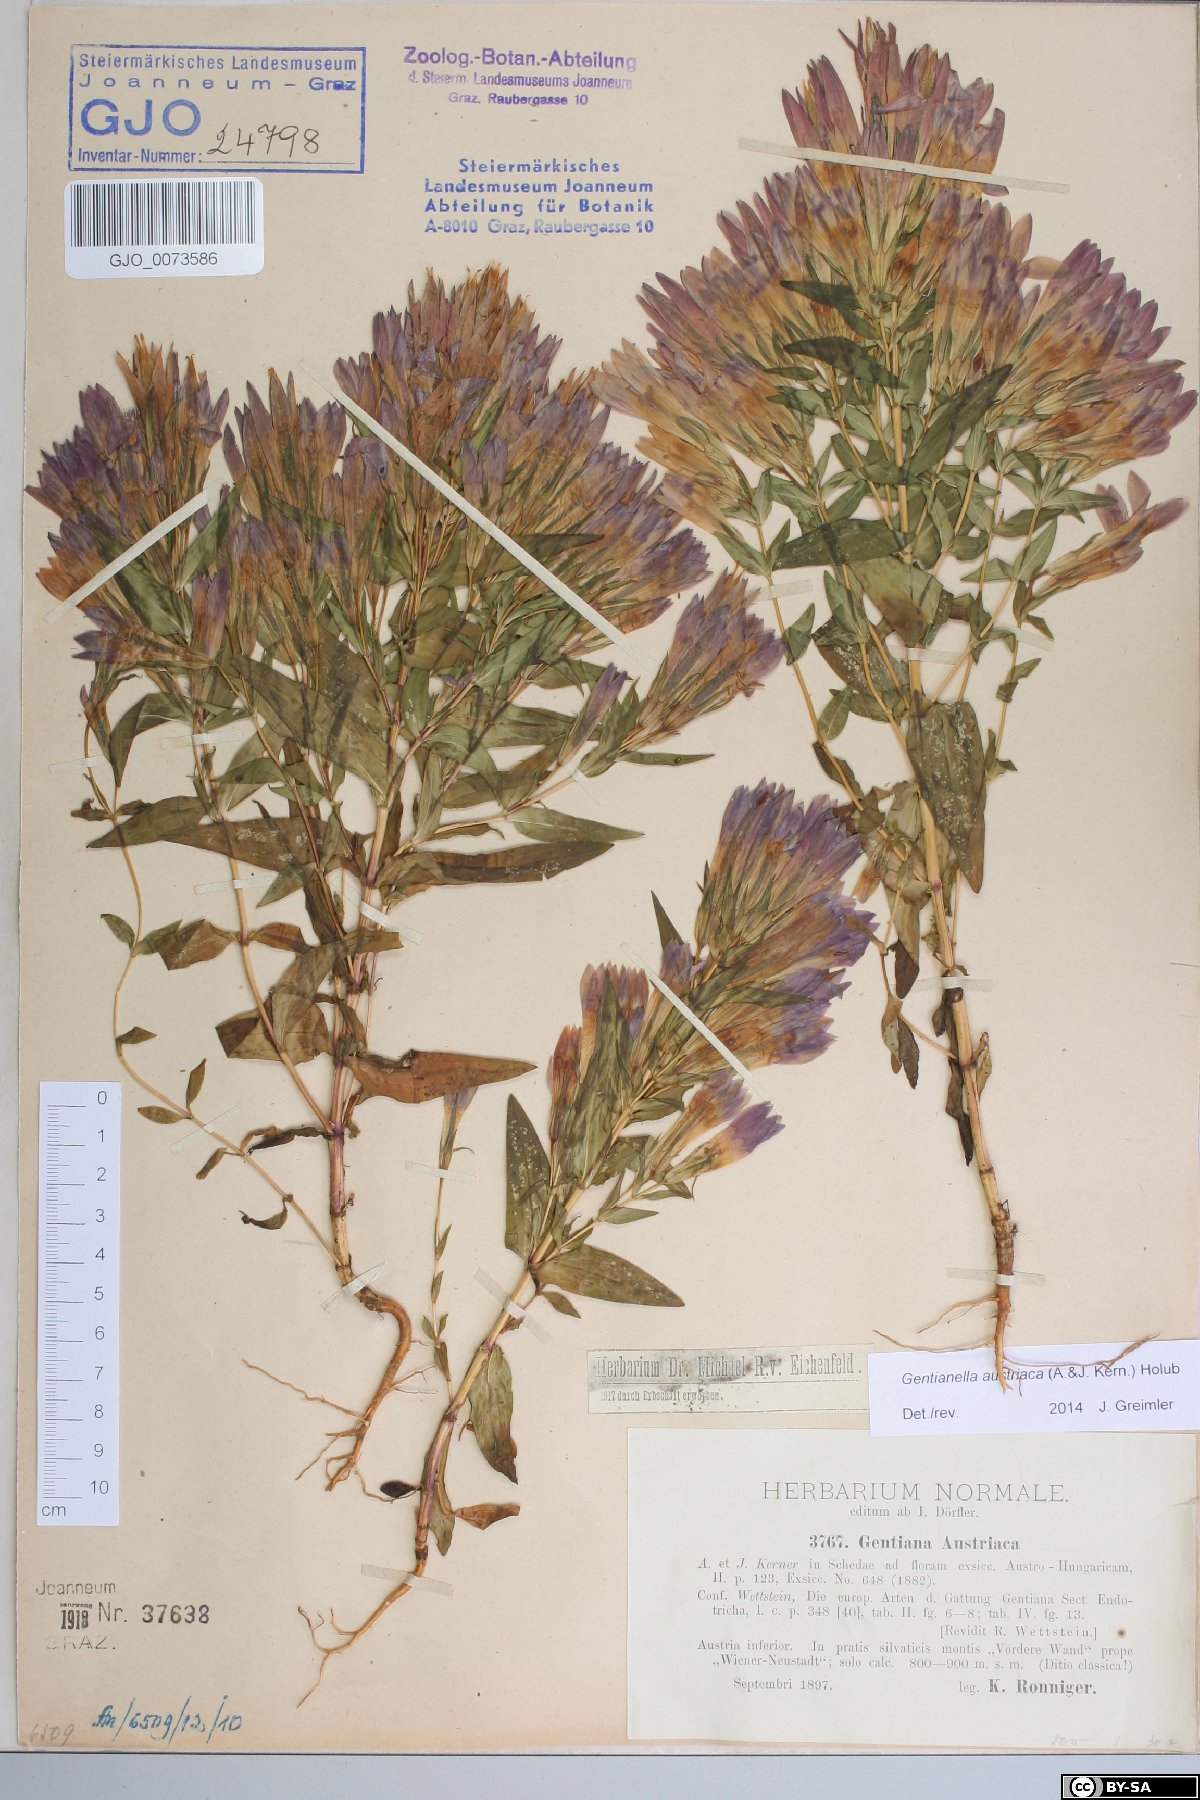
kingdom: Plantae
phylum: Tracheophyta
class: Magnoliopsida
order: Gentianales
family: Gentianaceae
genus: Gentianella
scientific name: Gentianella austriaca
